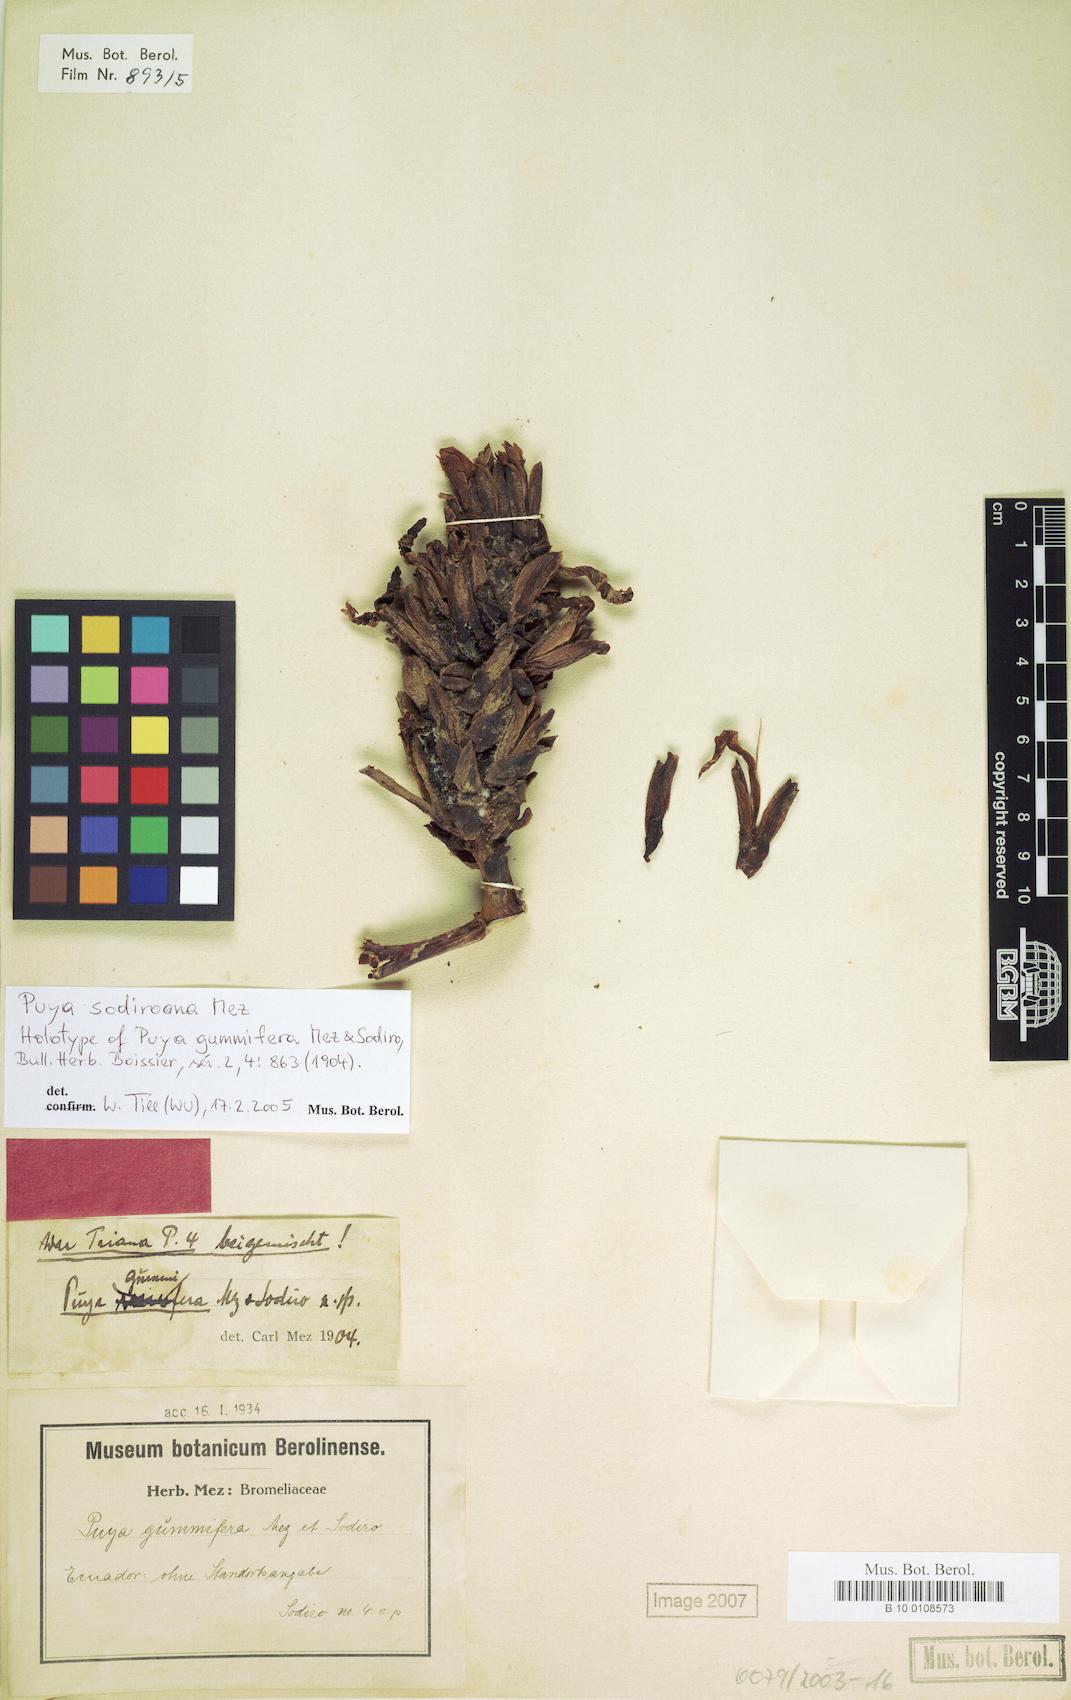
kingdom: Plantae
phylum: Tracheophyta
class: Liliopsida
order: Poales
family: Bromeliaceae
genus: Puya
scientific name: Puya sodiroana
